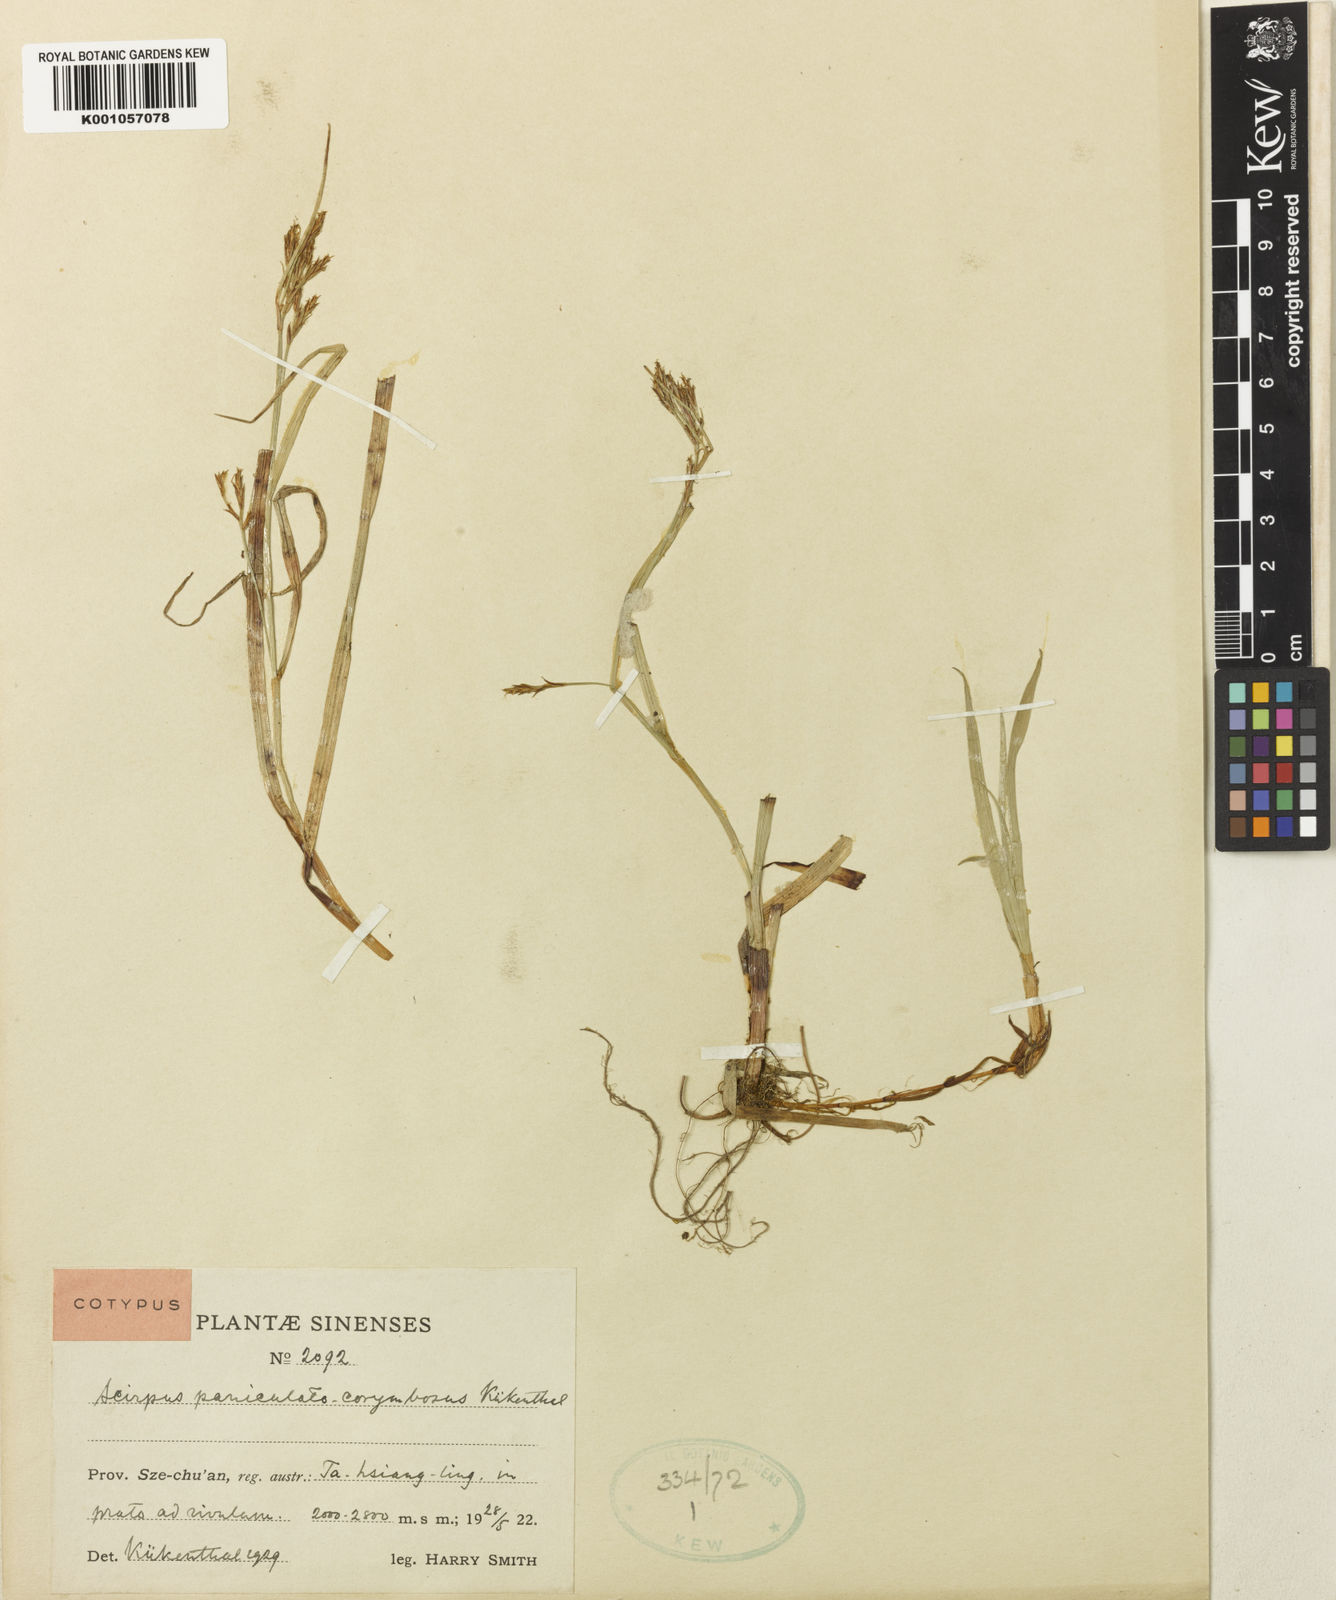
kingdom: Plantae
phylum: Tracheophyta
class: Liliopsida
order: Poales
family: Cyperaceae
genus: Scirpus
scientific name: Scirpus
